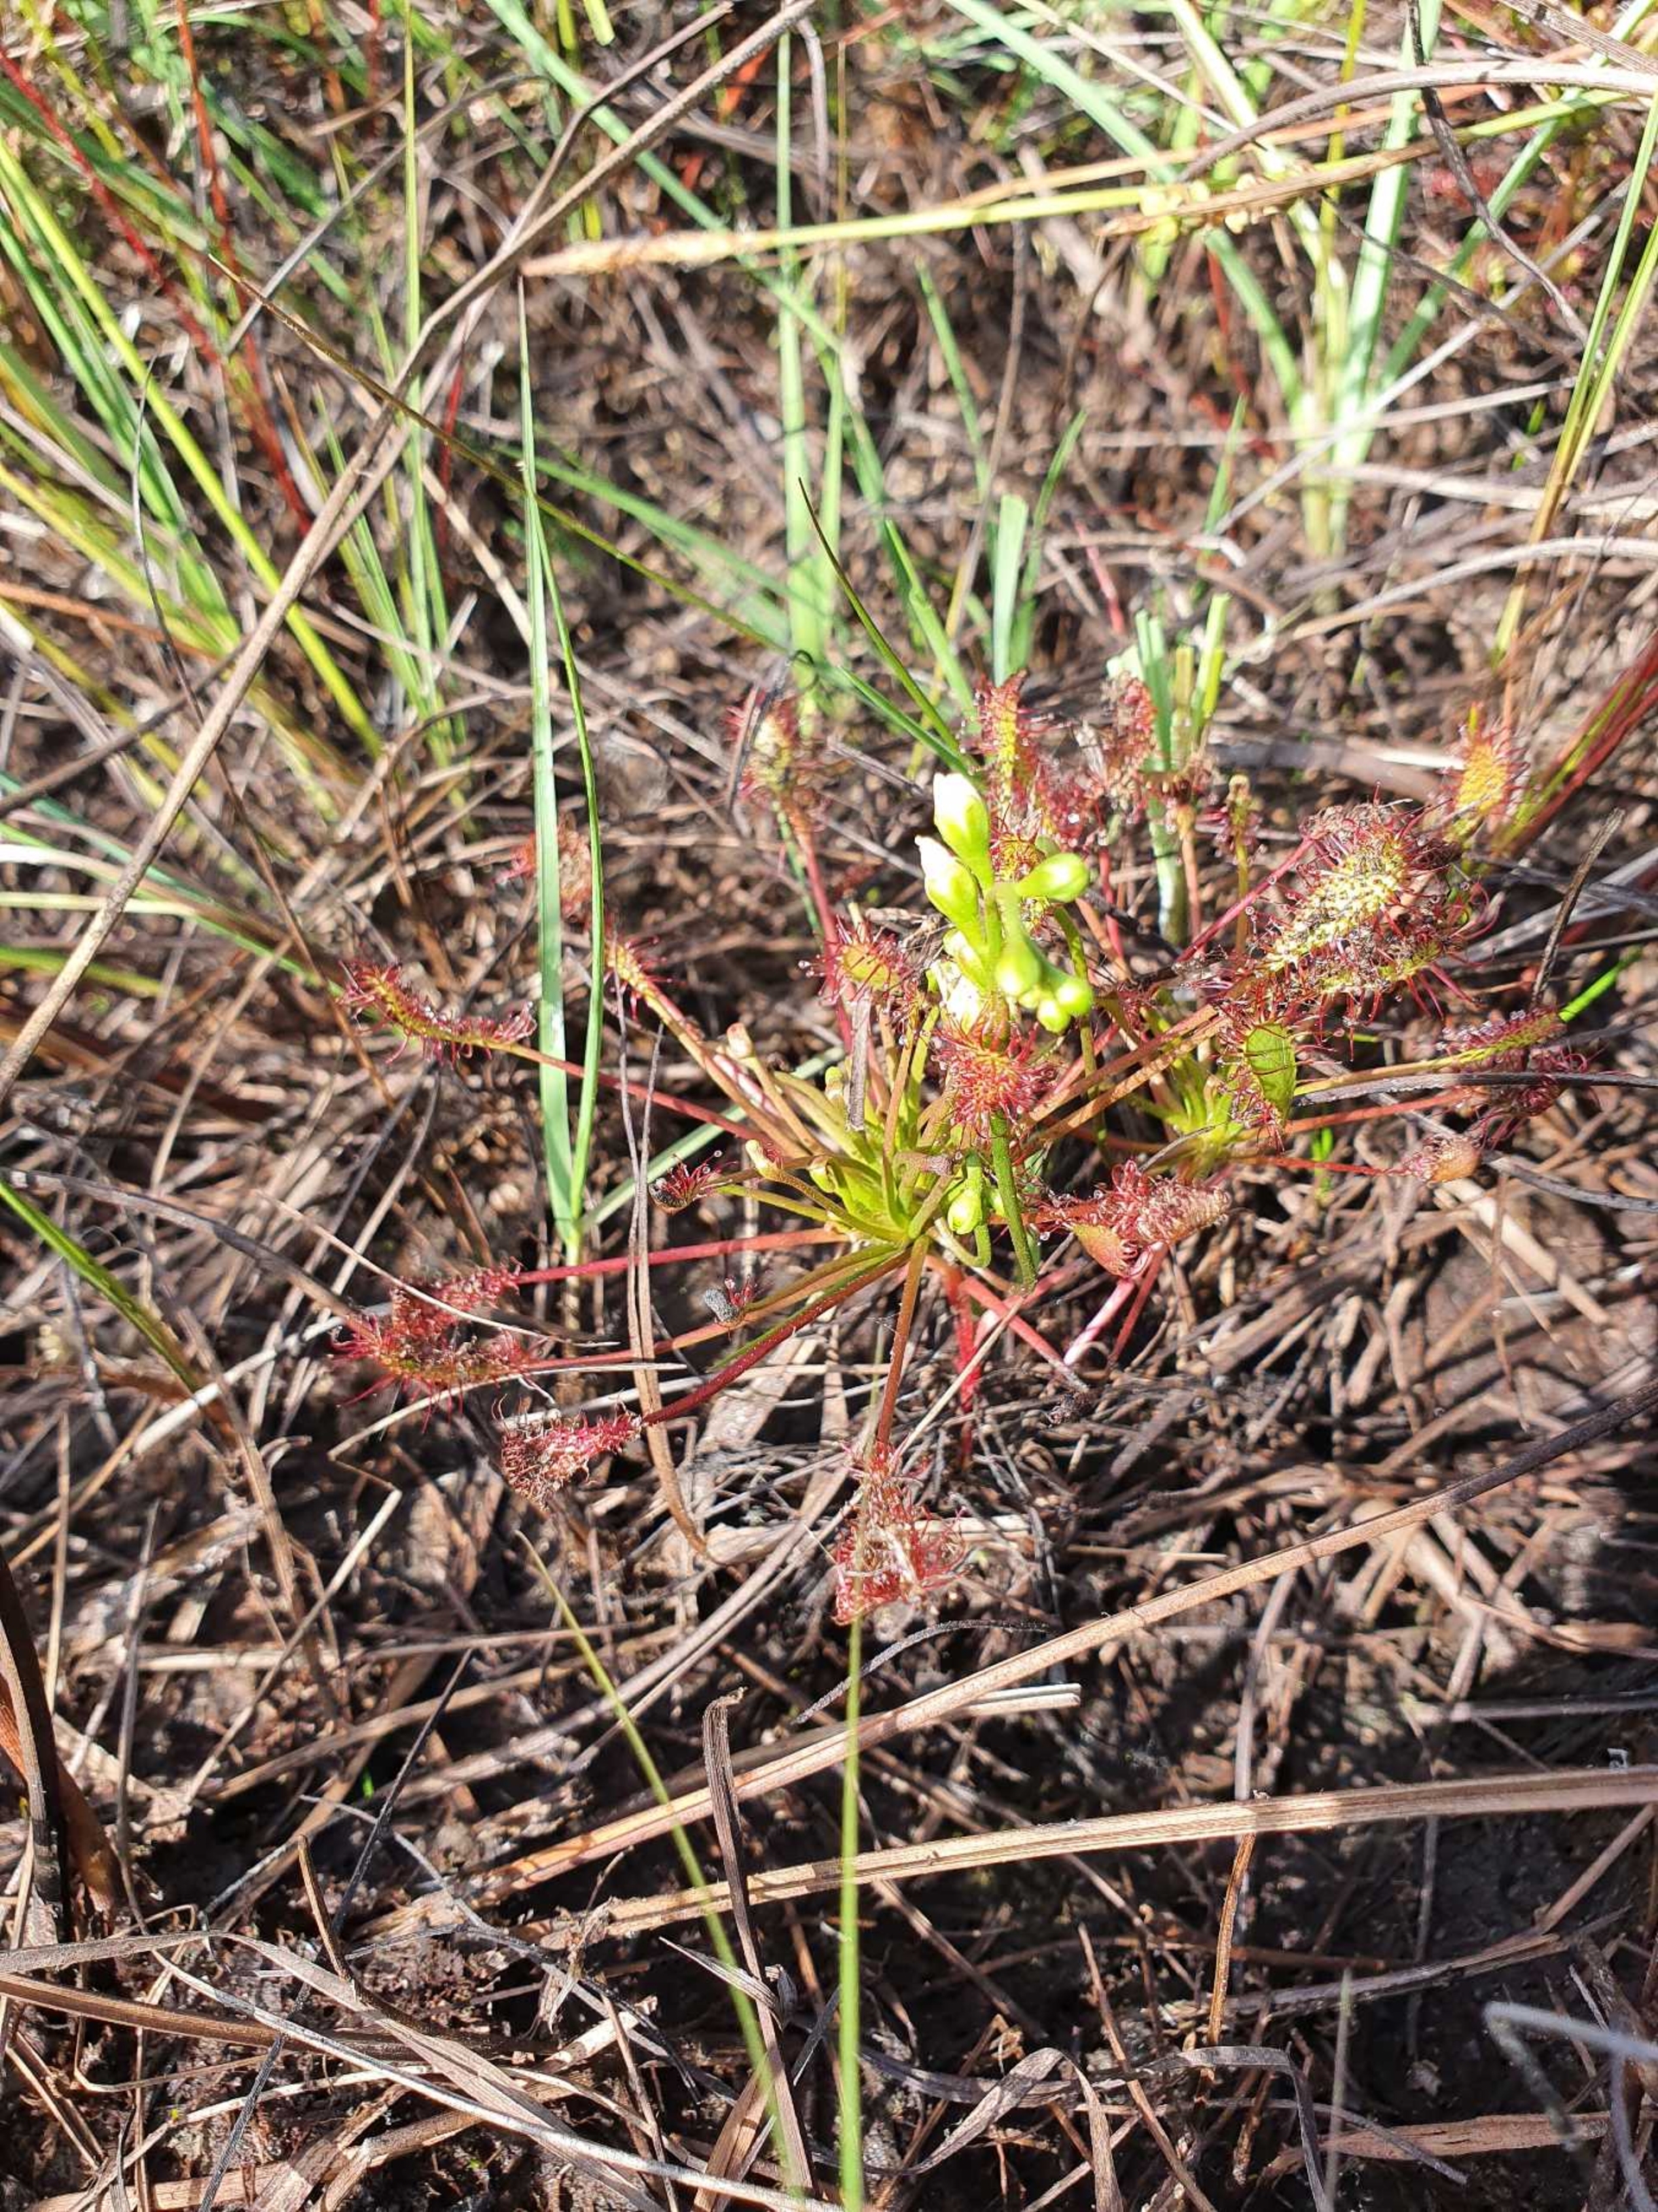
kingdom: Plantae
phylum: Tracheophyta
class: Magnoliopsida
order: Caryophyllales
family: Droseraceae
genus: Drosera
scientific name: Drosera intermedia
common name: Liden soldug
